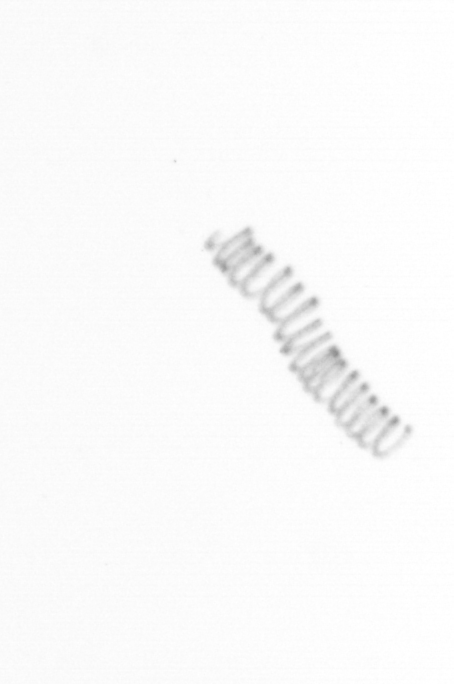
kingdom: Chromista
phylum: Ochrophyta
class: Bacillariophyceae
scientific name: Bacillariophyceae
